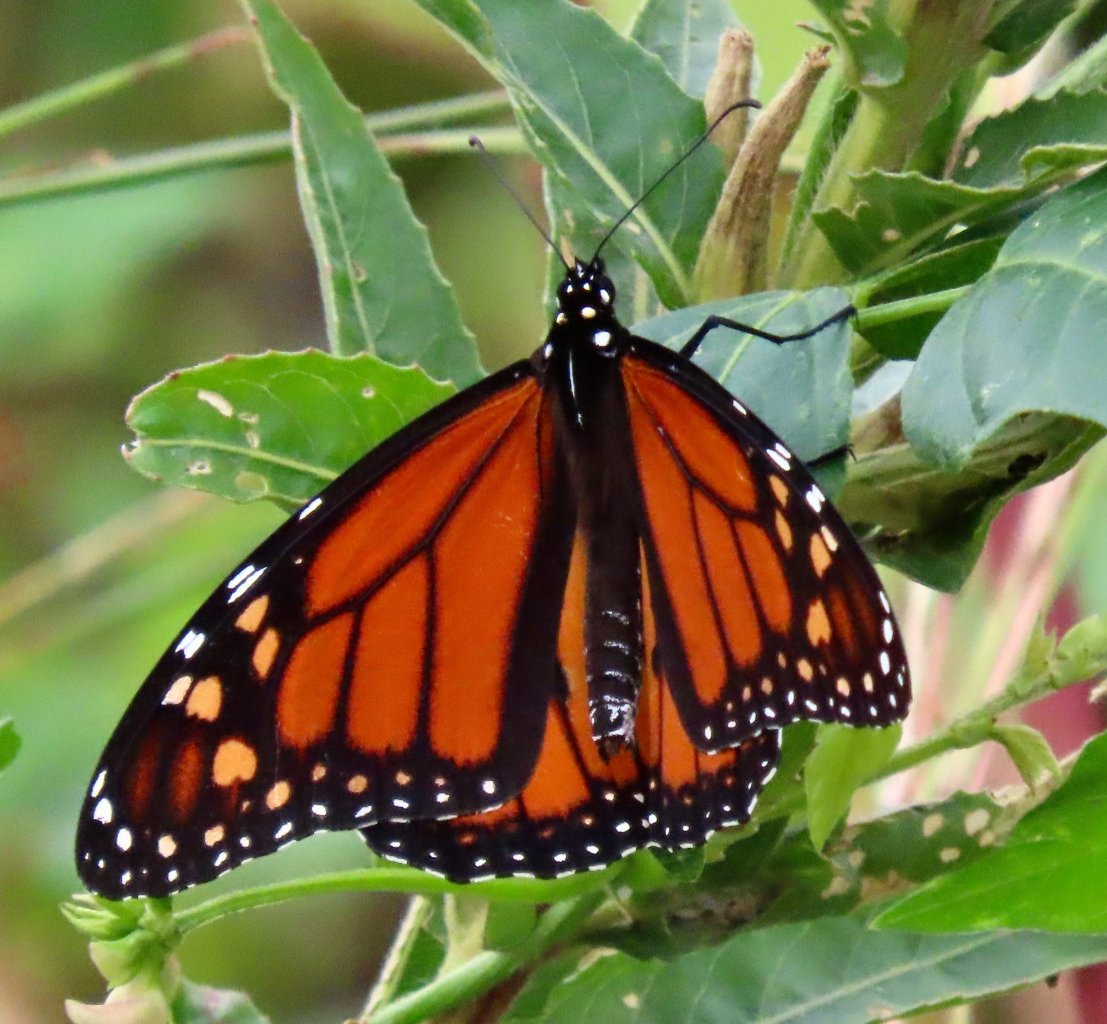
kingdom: Animalia
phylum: Arthropoda
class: Insecta
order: Lepidoptera
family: Nymphalidae
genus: Danaus
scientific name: Danaus plexippus
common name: Monarch
